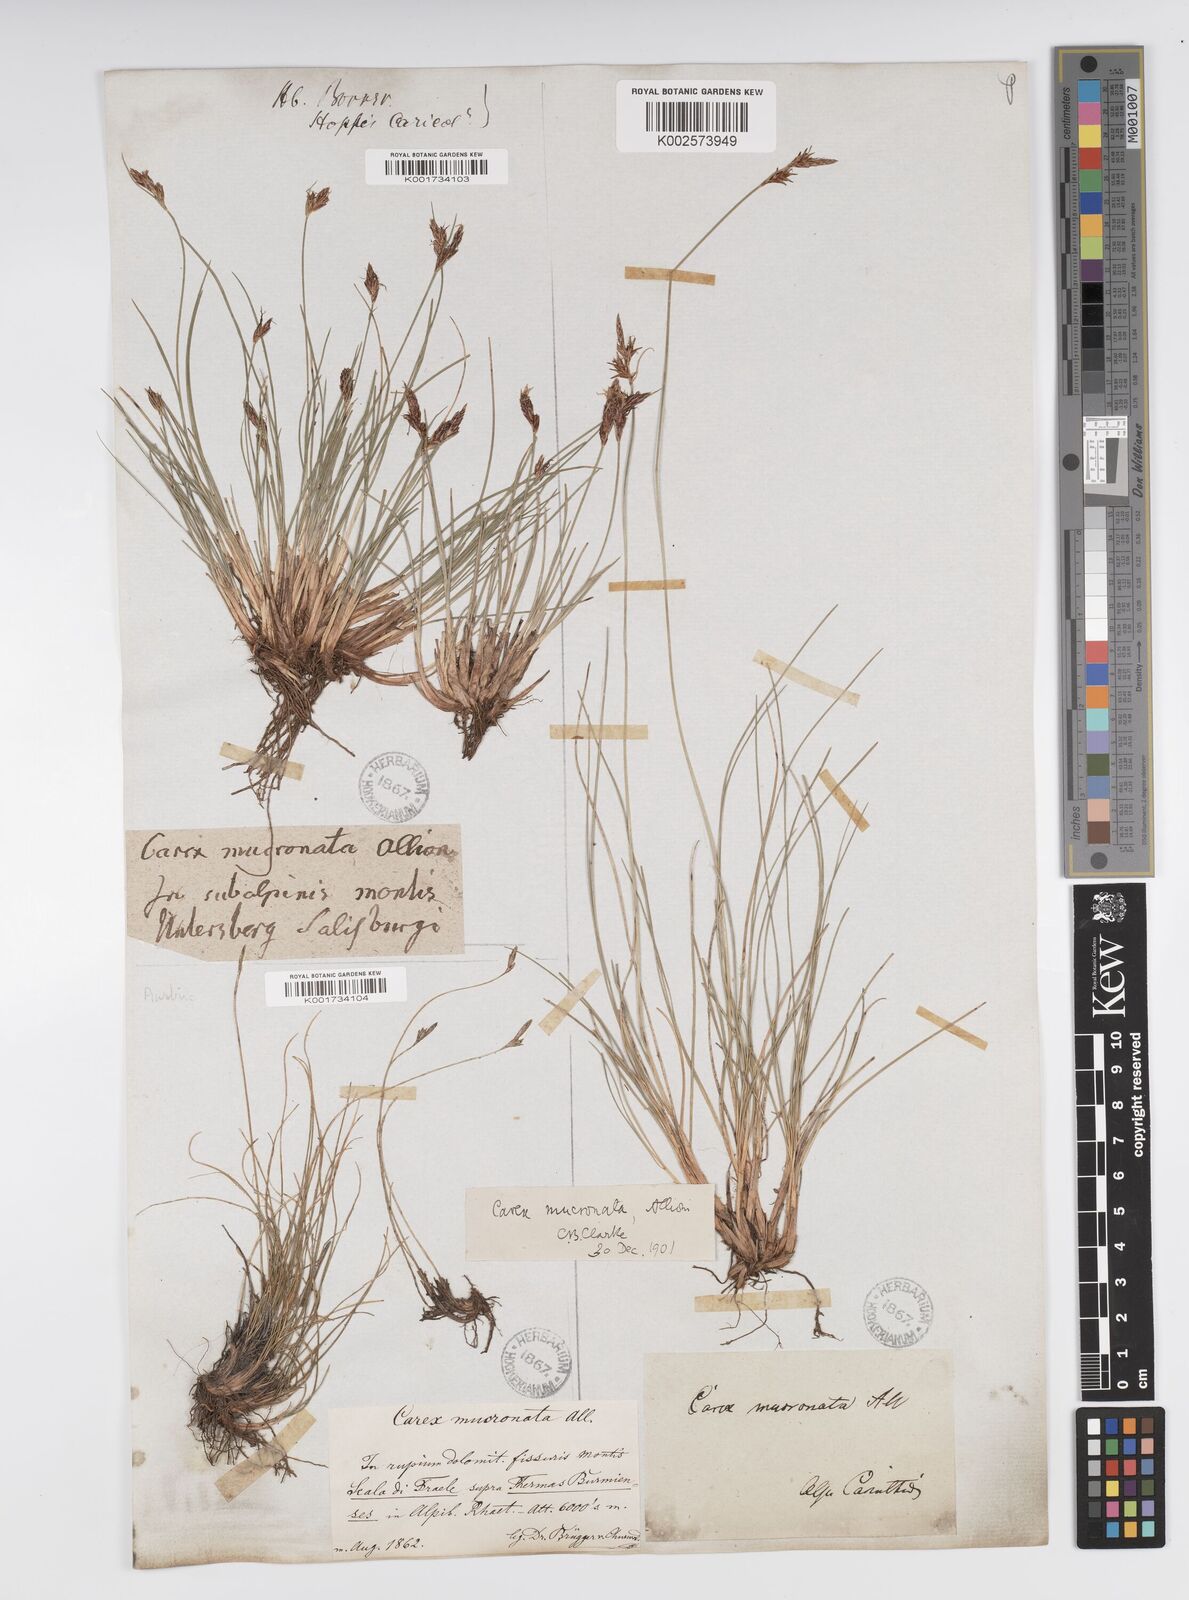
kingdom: Plantae
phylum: Tracheophyta
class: Liliopsida
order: Poales
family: Cyperaceae
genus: Carex
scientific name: Carex mucronata
